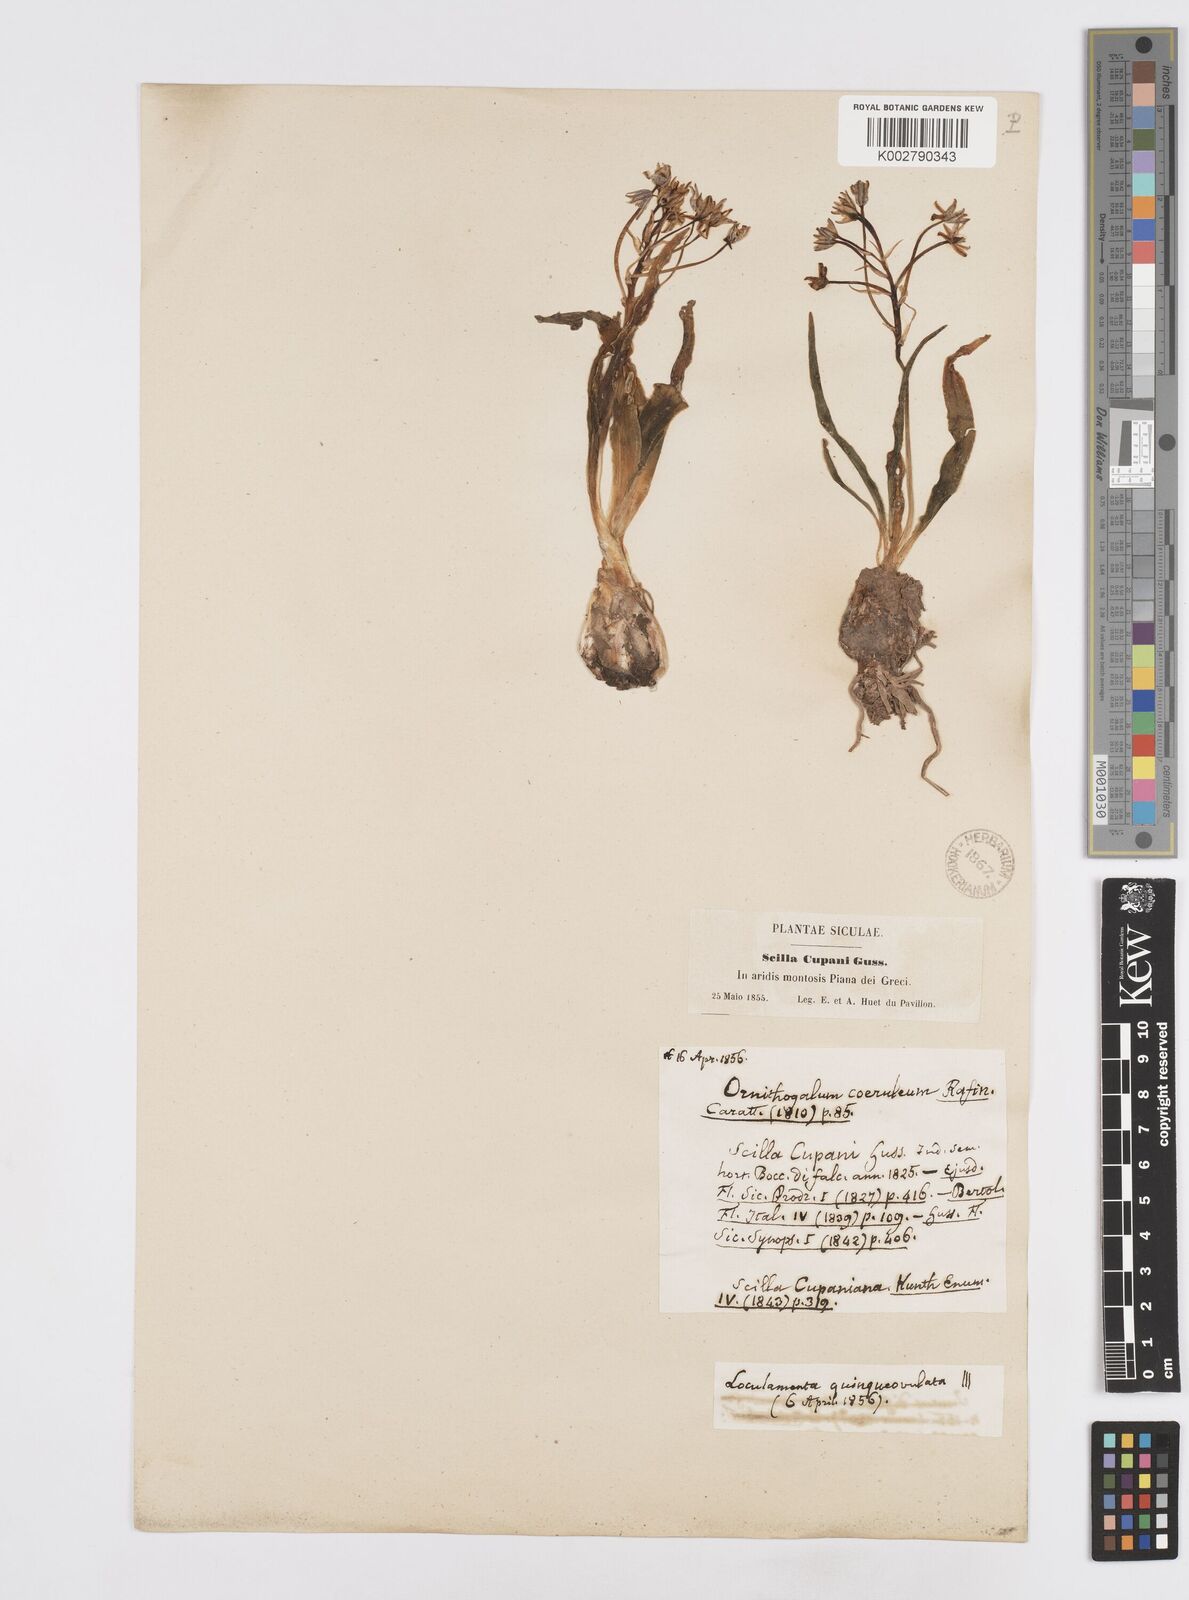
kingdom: Plantae
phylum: Tracheophyta
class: Liliopsida
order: Asparagales
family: Asparagaceae
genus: Scilla
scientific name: Scilla peruviana
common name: Portuguese squill
